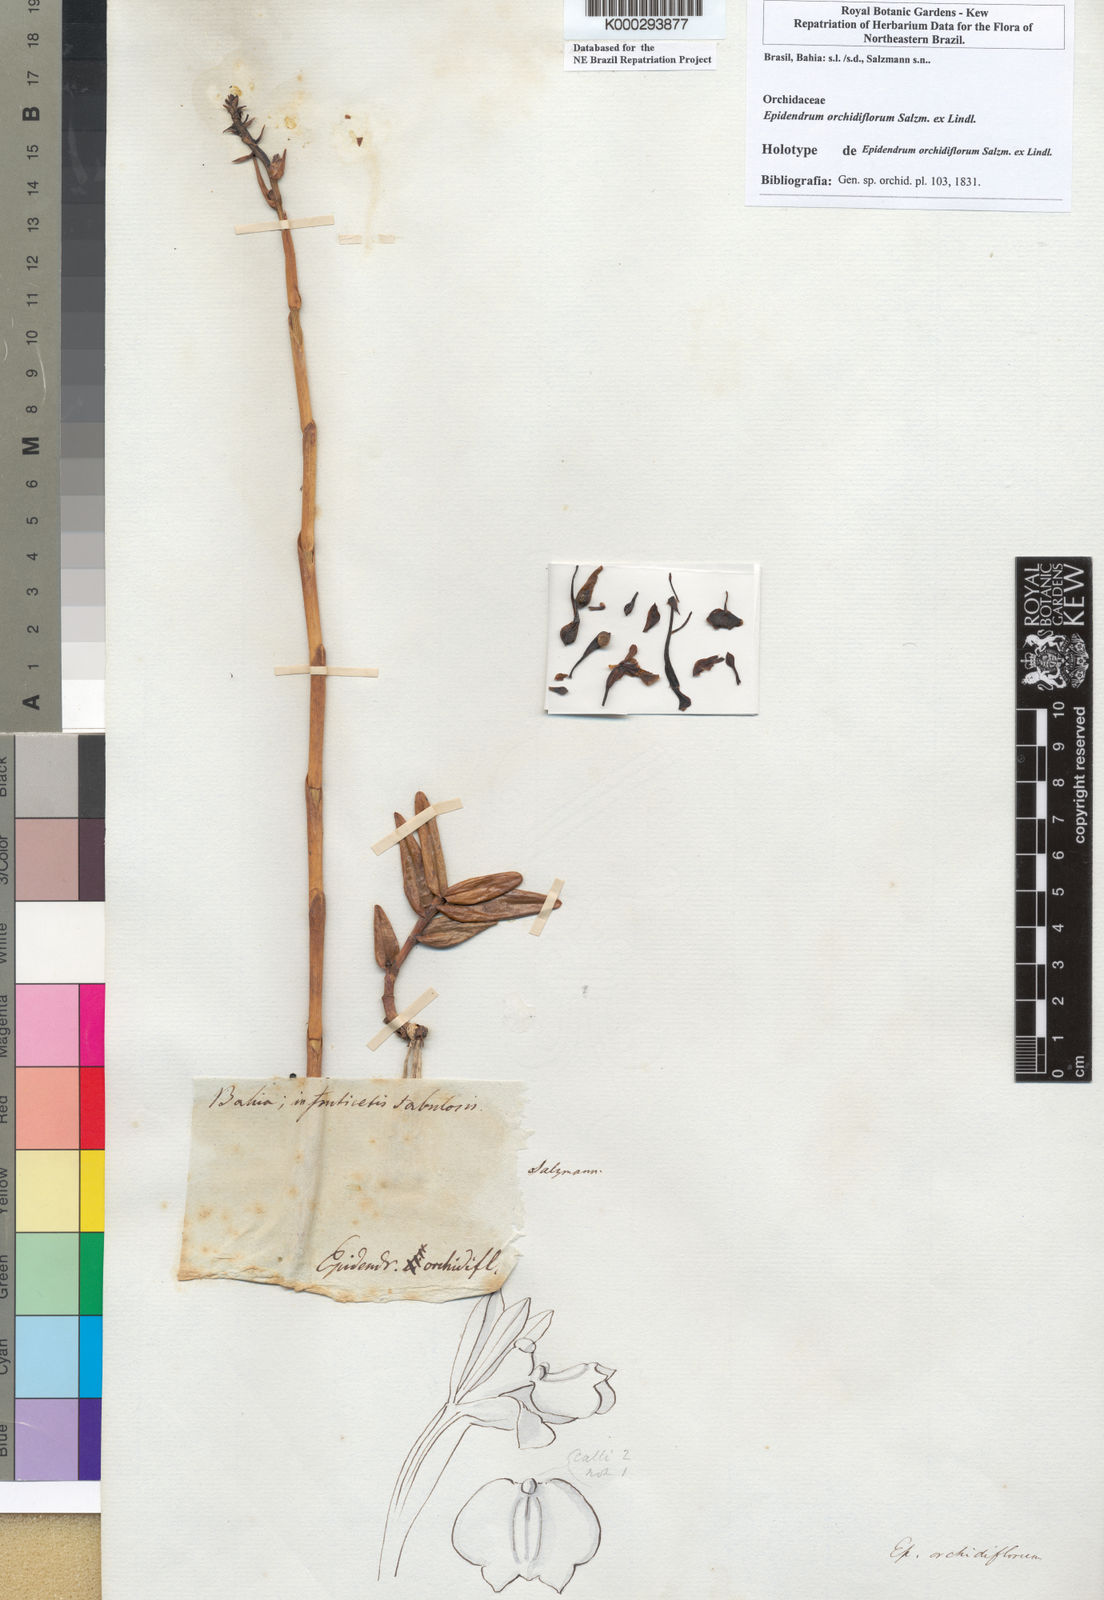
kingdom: Plantae
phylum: Tracheophyta
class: Liliopsida
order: Asparagales
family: Orchidaceae
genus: Epidendrum
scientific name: Epidendrum orchidiflorum
